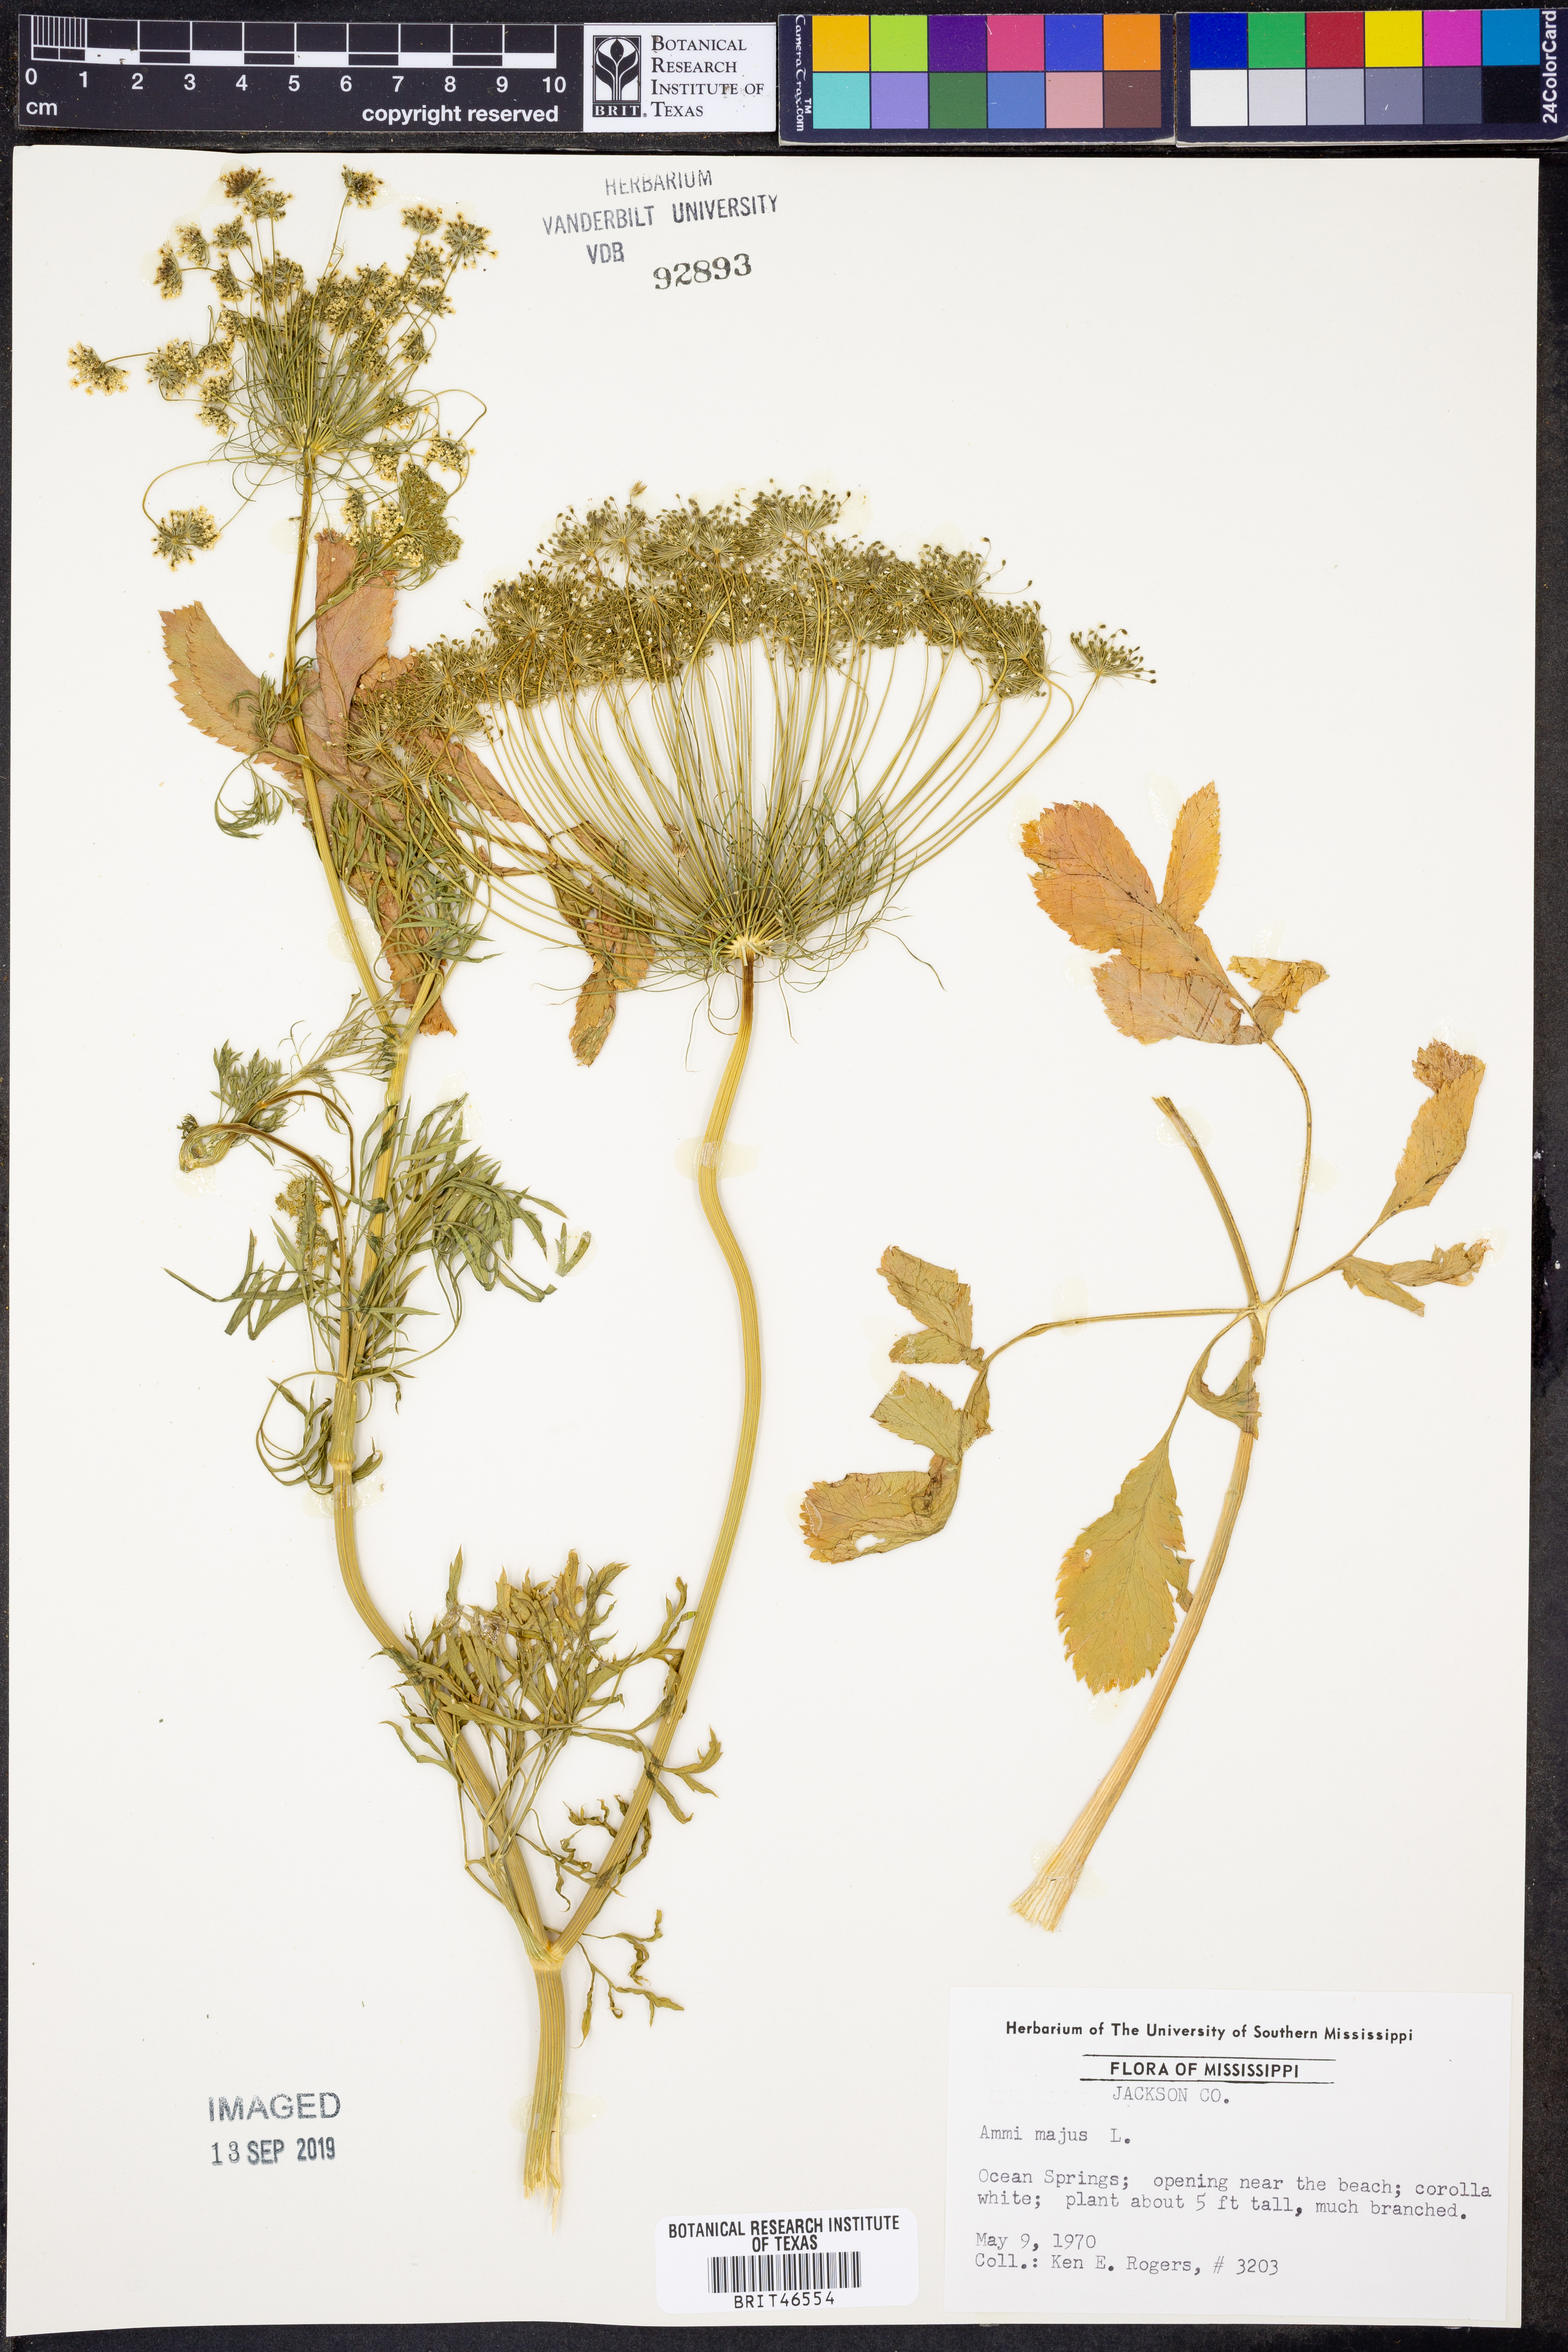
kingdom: Plantae
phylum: Tracheophyta
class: Magnoliopsida
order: Apiales
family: Apiaceae
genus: Ammi
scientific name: Ammi majus
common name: Bullwort
